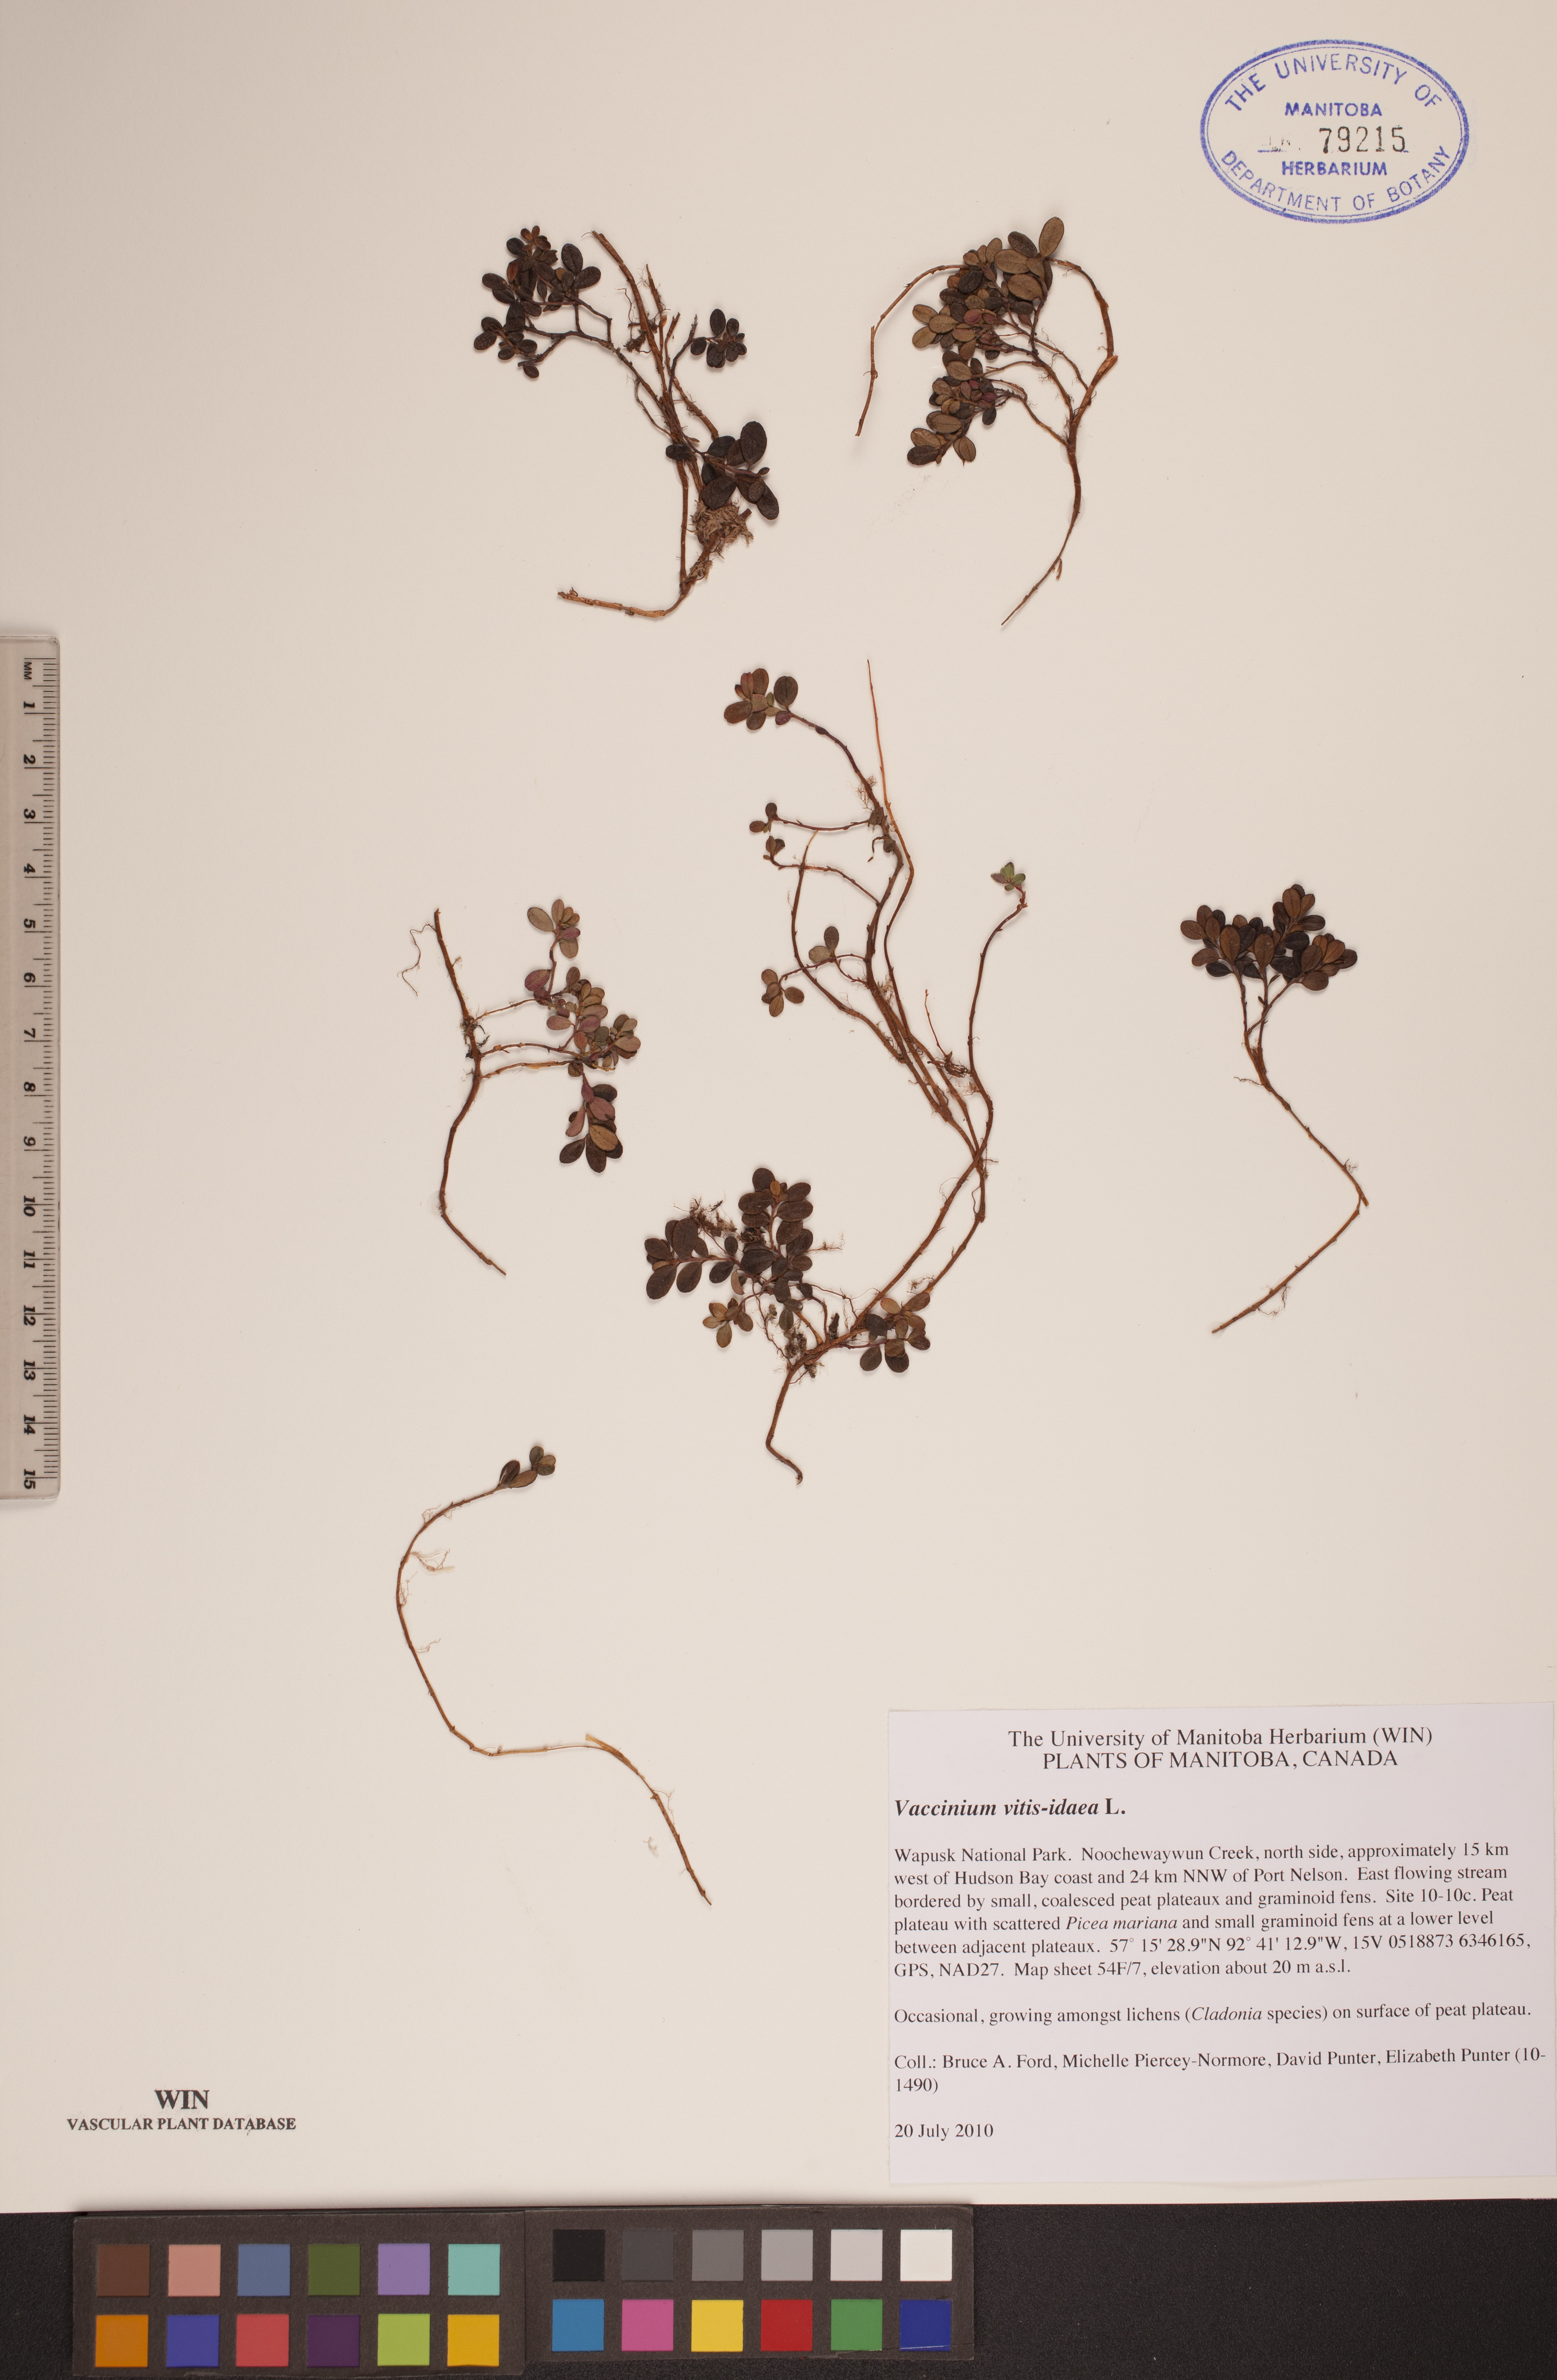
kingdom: Plantae
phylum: Tracheophyta
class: Magnoliopsida
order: Ericales
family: Ericaceae
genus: Vaccinium
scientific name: Vaccinium vitis-idaea
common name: Cowberry
